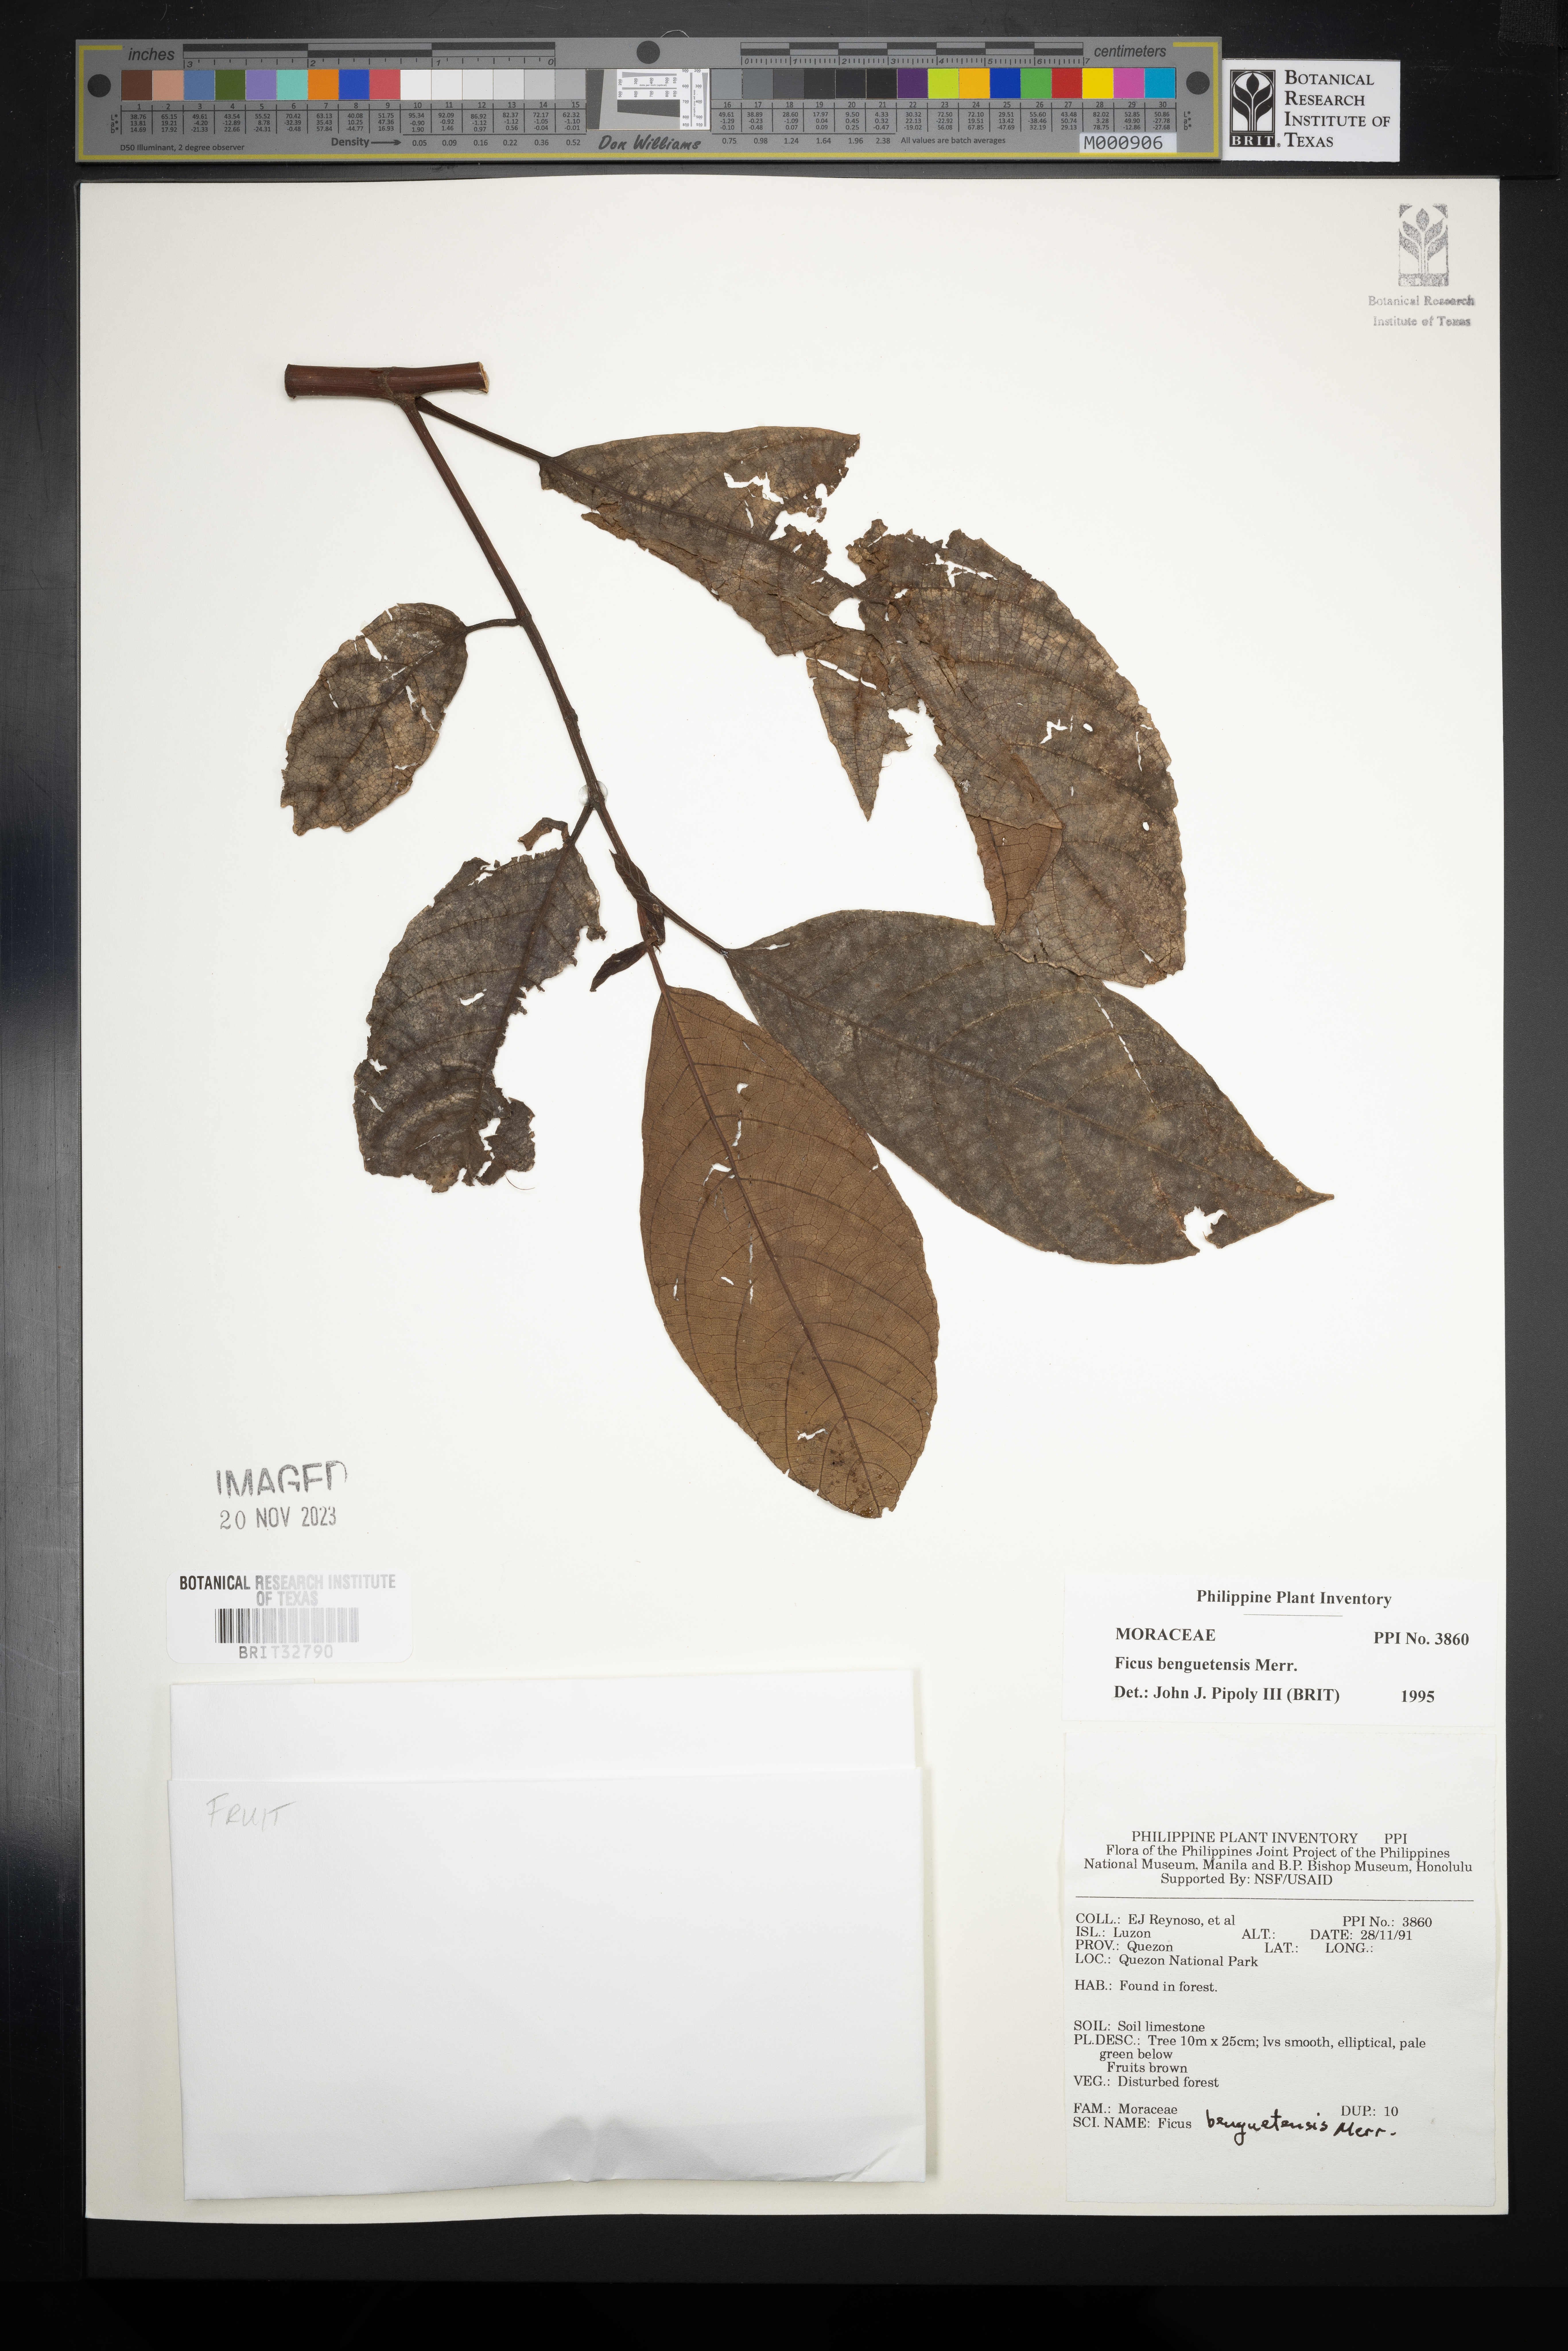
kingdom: Plantae
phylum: Tracheophyta
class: Magnoliopsida
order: Rosales
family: Moraceae
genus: Ficus
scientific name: Ficus benguetensis
